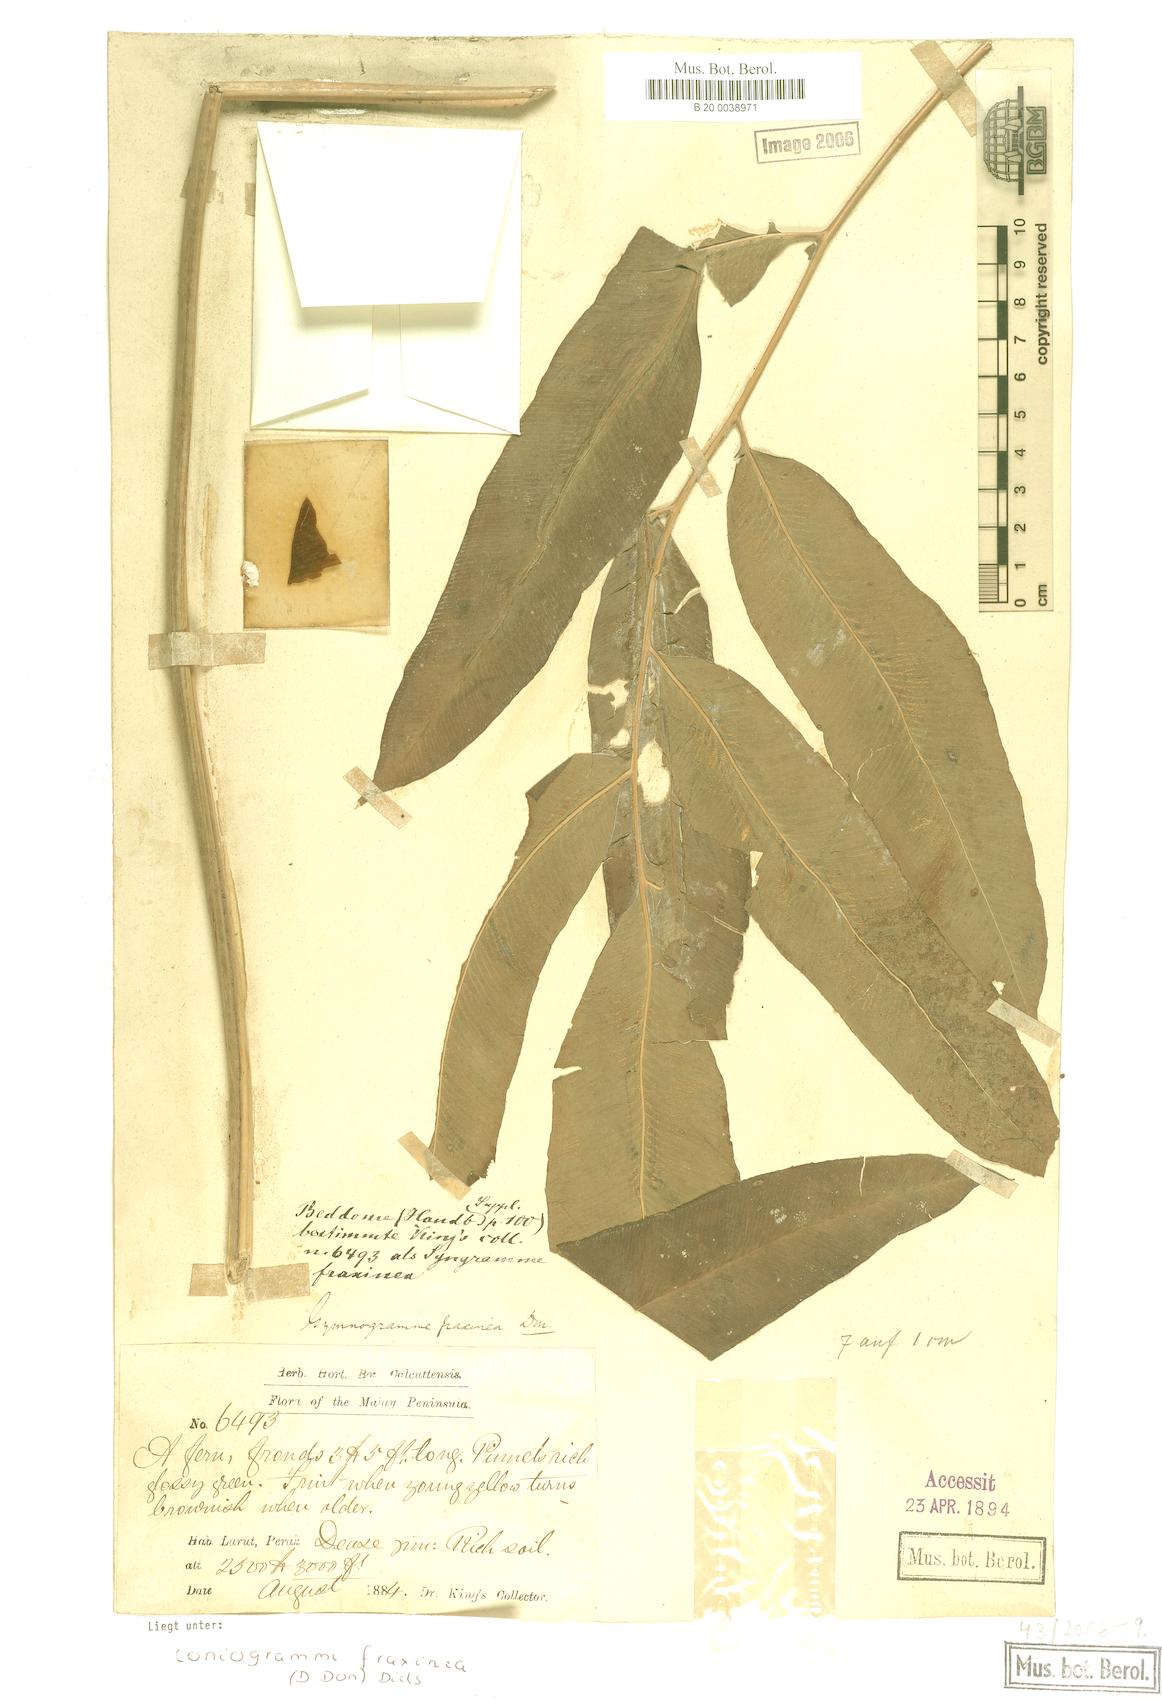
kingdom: Plantae
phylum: Tracheophyta
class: Polypodiopsida
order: Polypodiales
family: Pteridaceae
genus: Coniogramme
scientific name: Coniogramme fraxinea
